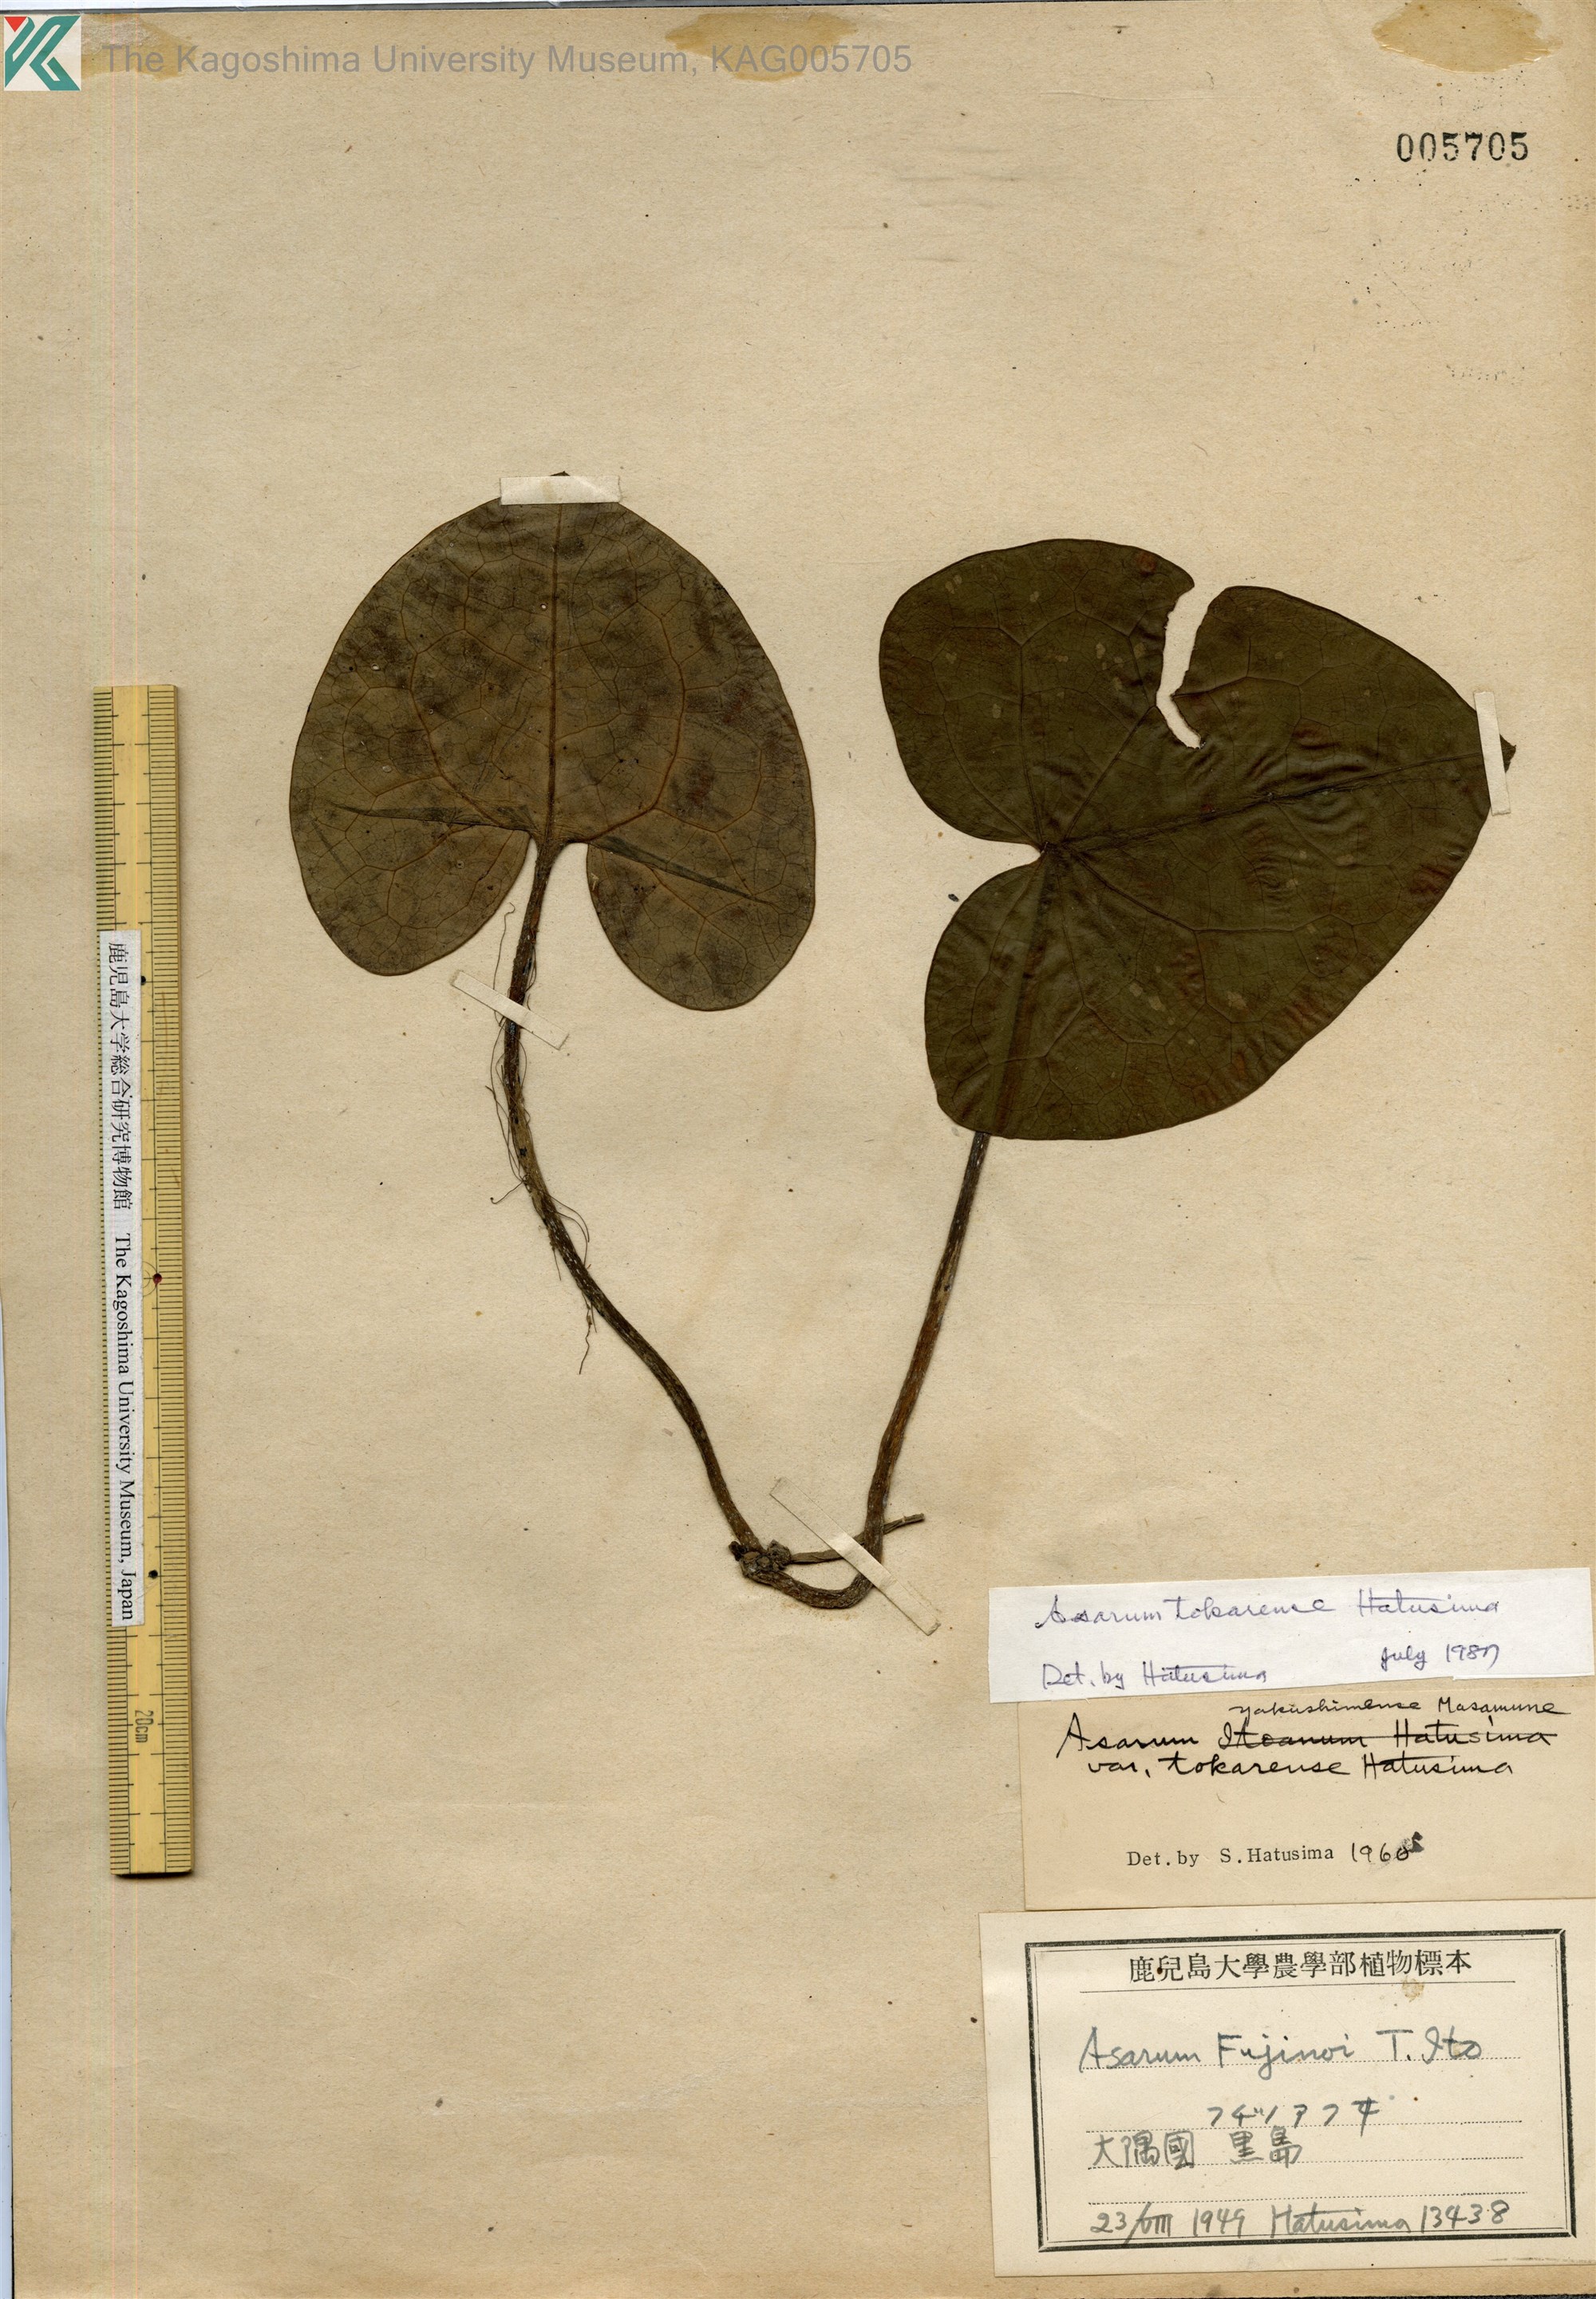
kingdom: Plantae
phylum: Tracheophyta
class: Magnoliopsida
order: Piperales
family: Aristolochiaceae
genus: Asarum
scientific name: Asarum tokarense
